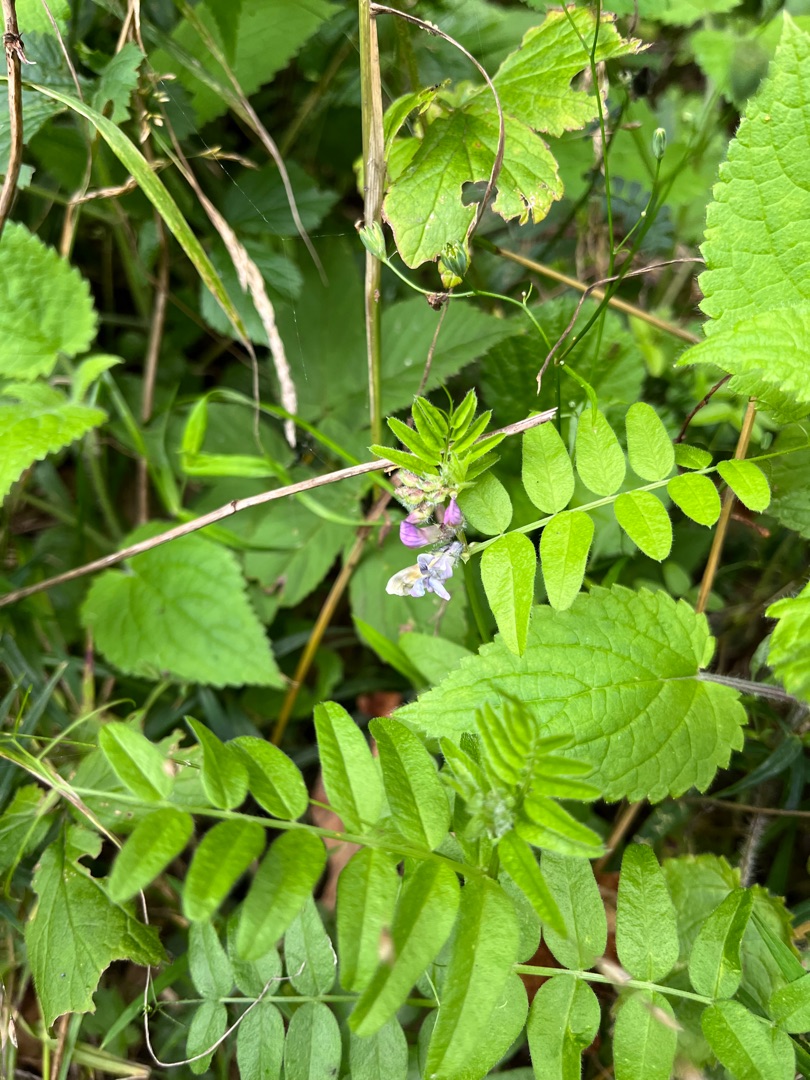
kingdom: Plantae
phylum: Tracheophyta
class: Magnoliopsida
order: Fabales
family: Fabaceae
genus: Vicia
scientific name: Vicia sepium
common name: Gærde-vikke
